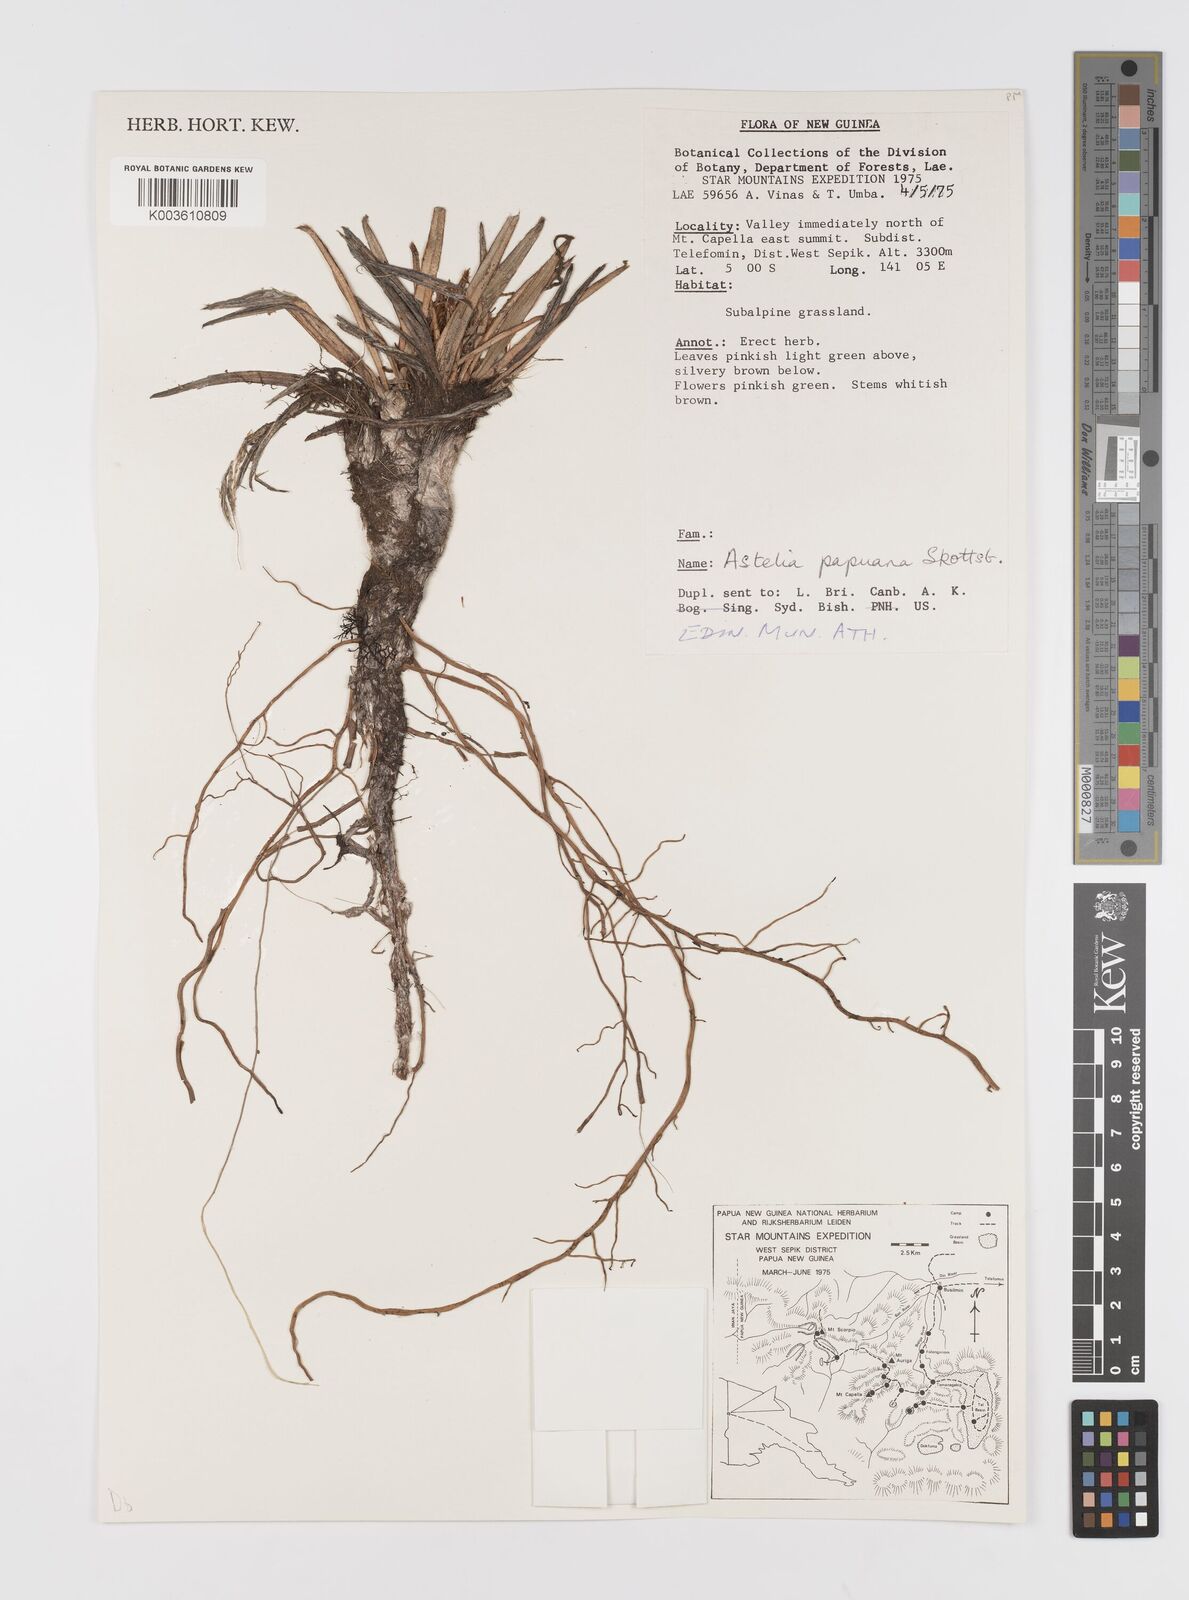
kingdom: Plantae
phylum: Tracheophyta
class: Liliopsida
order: Asparagales
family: Asteliaceae
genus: Astelia
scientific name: Astelia papuana
